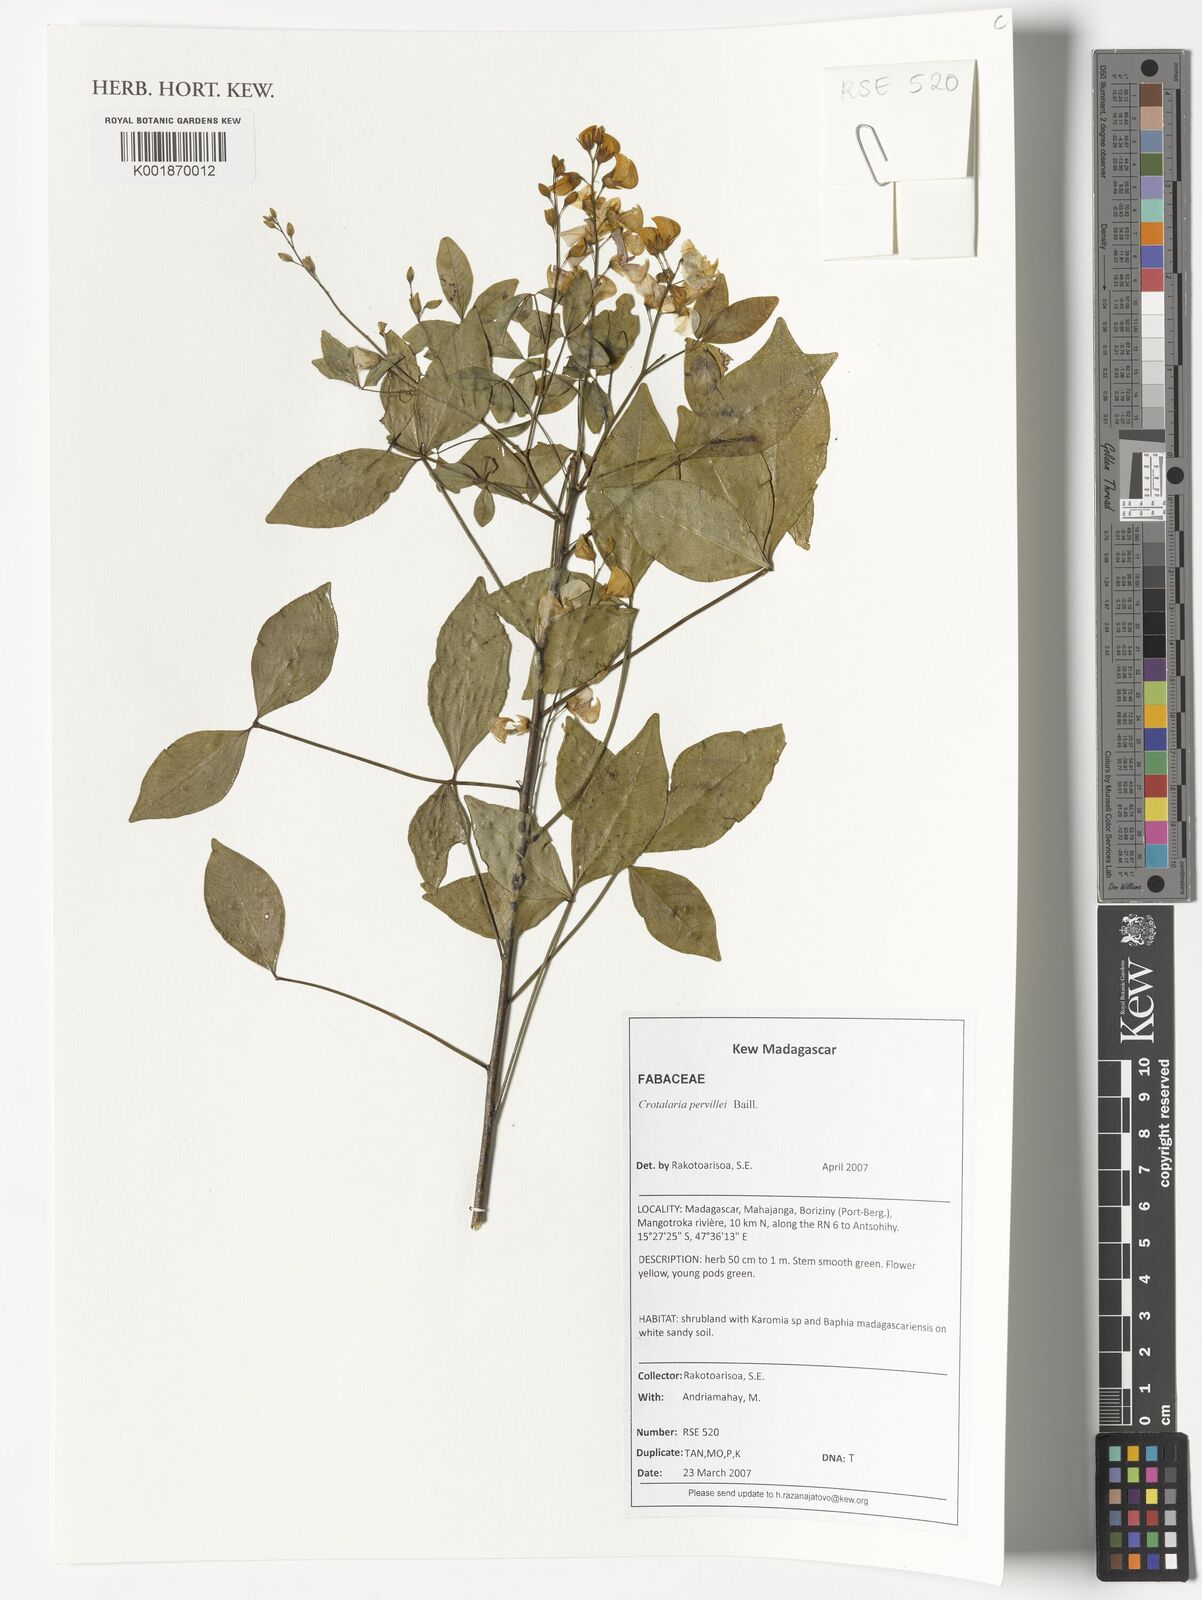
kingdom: Plantae
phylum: Tracheophyta
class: Magnoliopsida
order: Fabales
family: Fabaceae
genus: Crotalaria
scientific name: Crotalaria pervillei
